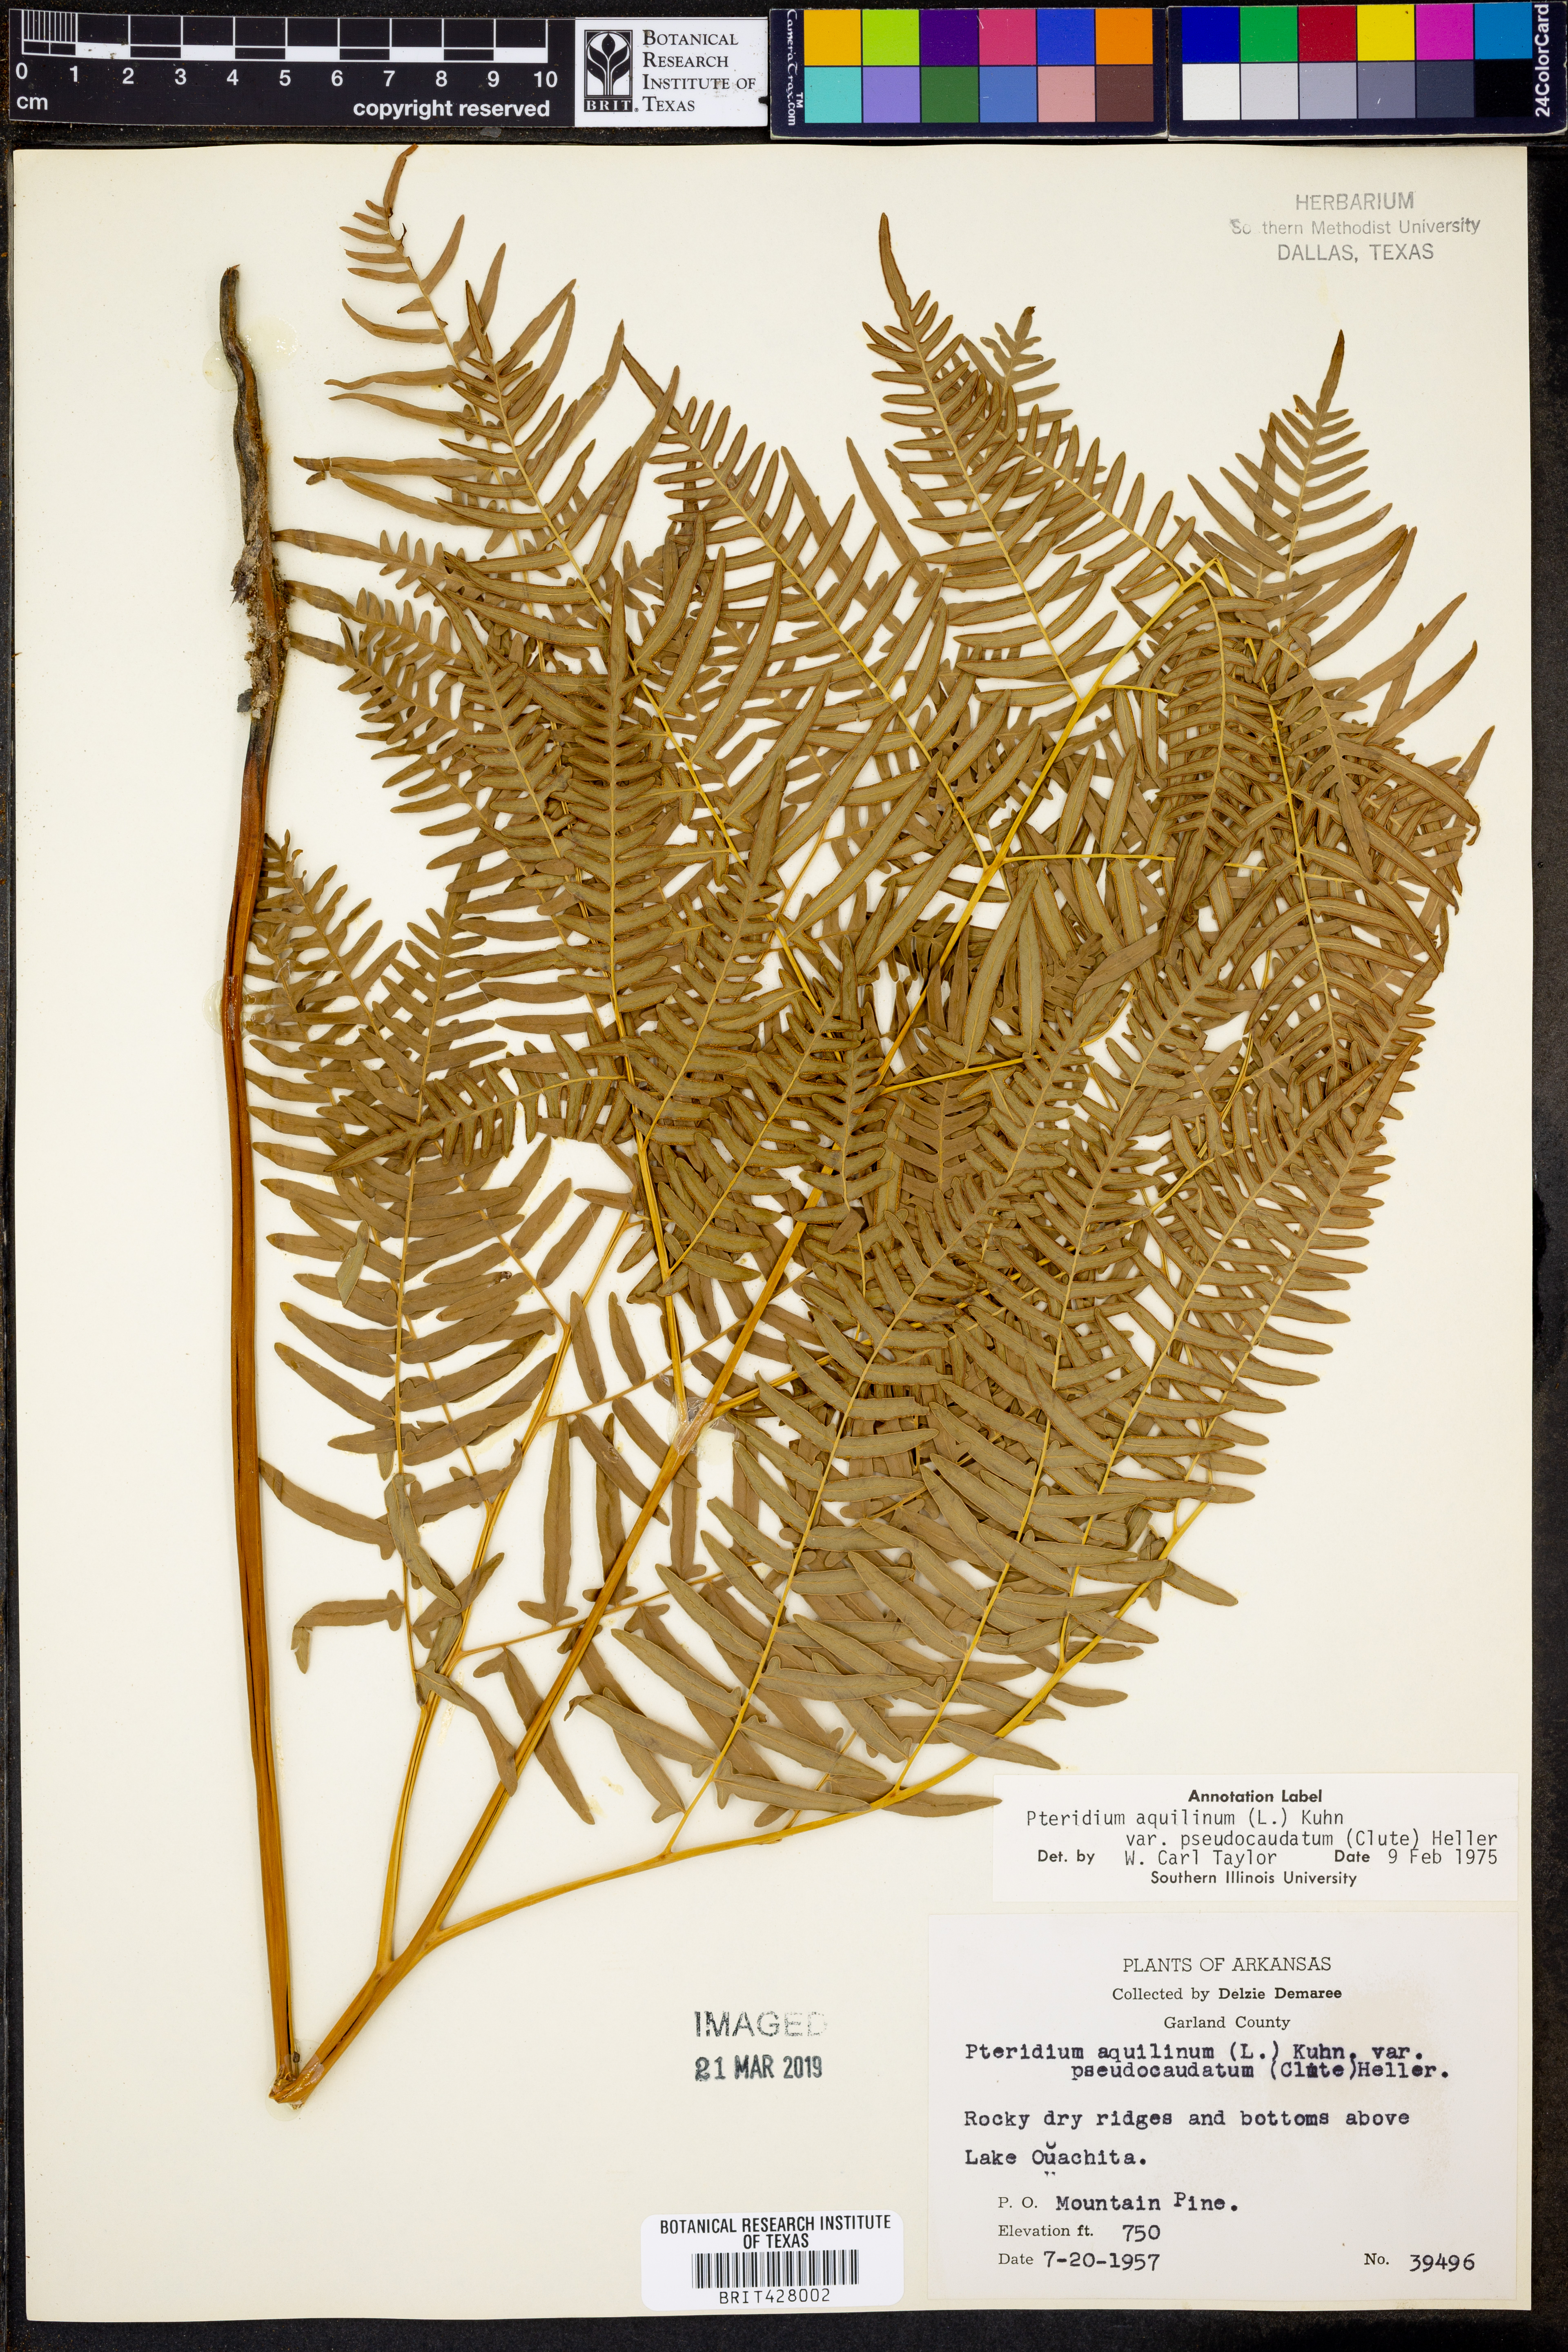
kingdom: Plantae
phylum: Tracheophyta
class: Polypodiopsida
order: Polypodiales
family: Dennstaedtiaceae
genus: Pteridium
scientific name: Pteridium aquilinum
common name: Bracken
